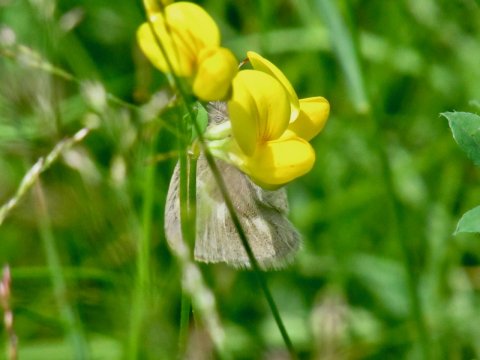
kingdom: Animalia
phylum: Arthropoda
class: Insecta
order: Lepidoptera
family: Nymphalidae
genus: Coenonympha
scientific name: Coenonympha tullia
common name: Large Heath
